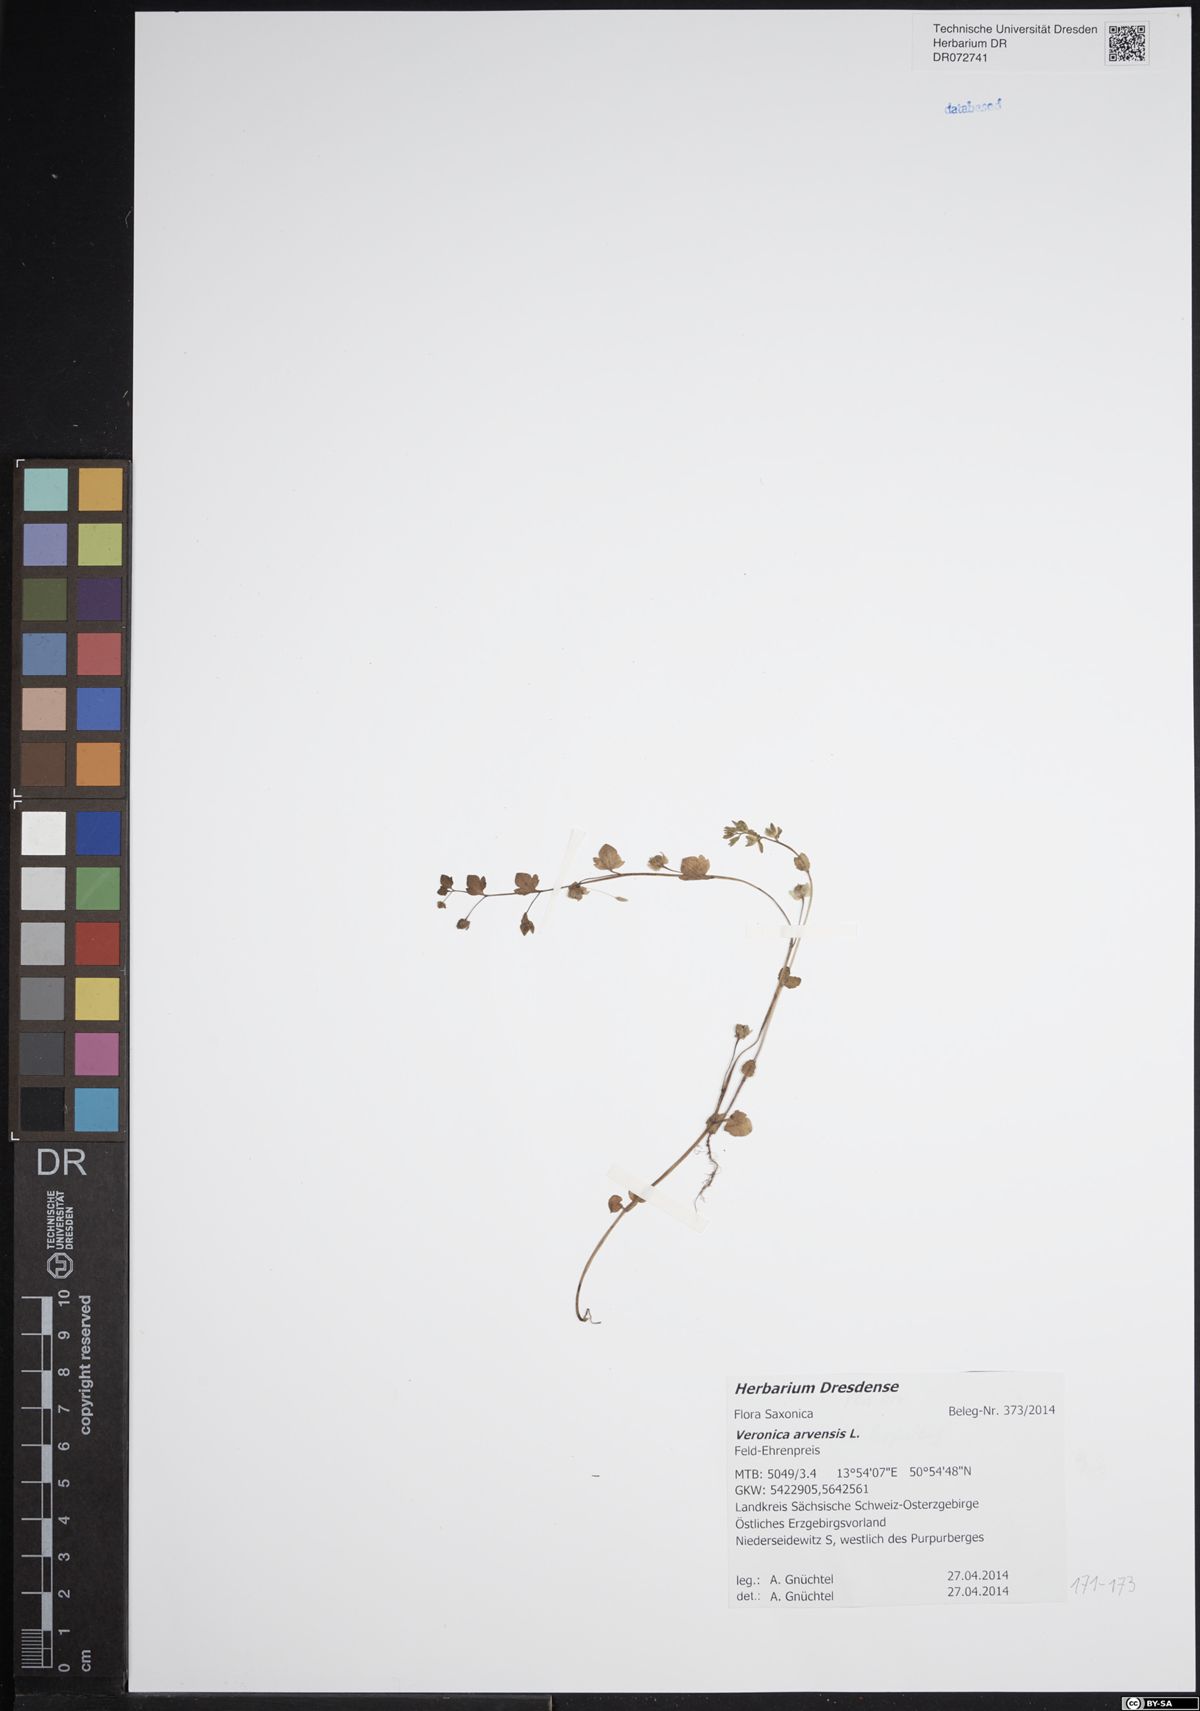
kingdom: Plantae
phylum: Tracheophyta
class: Magnoliopsida
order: Lamiales
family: Plantaginaceae
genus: Veronica
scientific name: Veronica arvensis
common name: Corn speedwell
